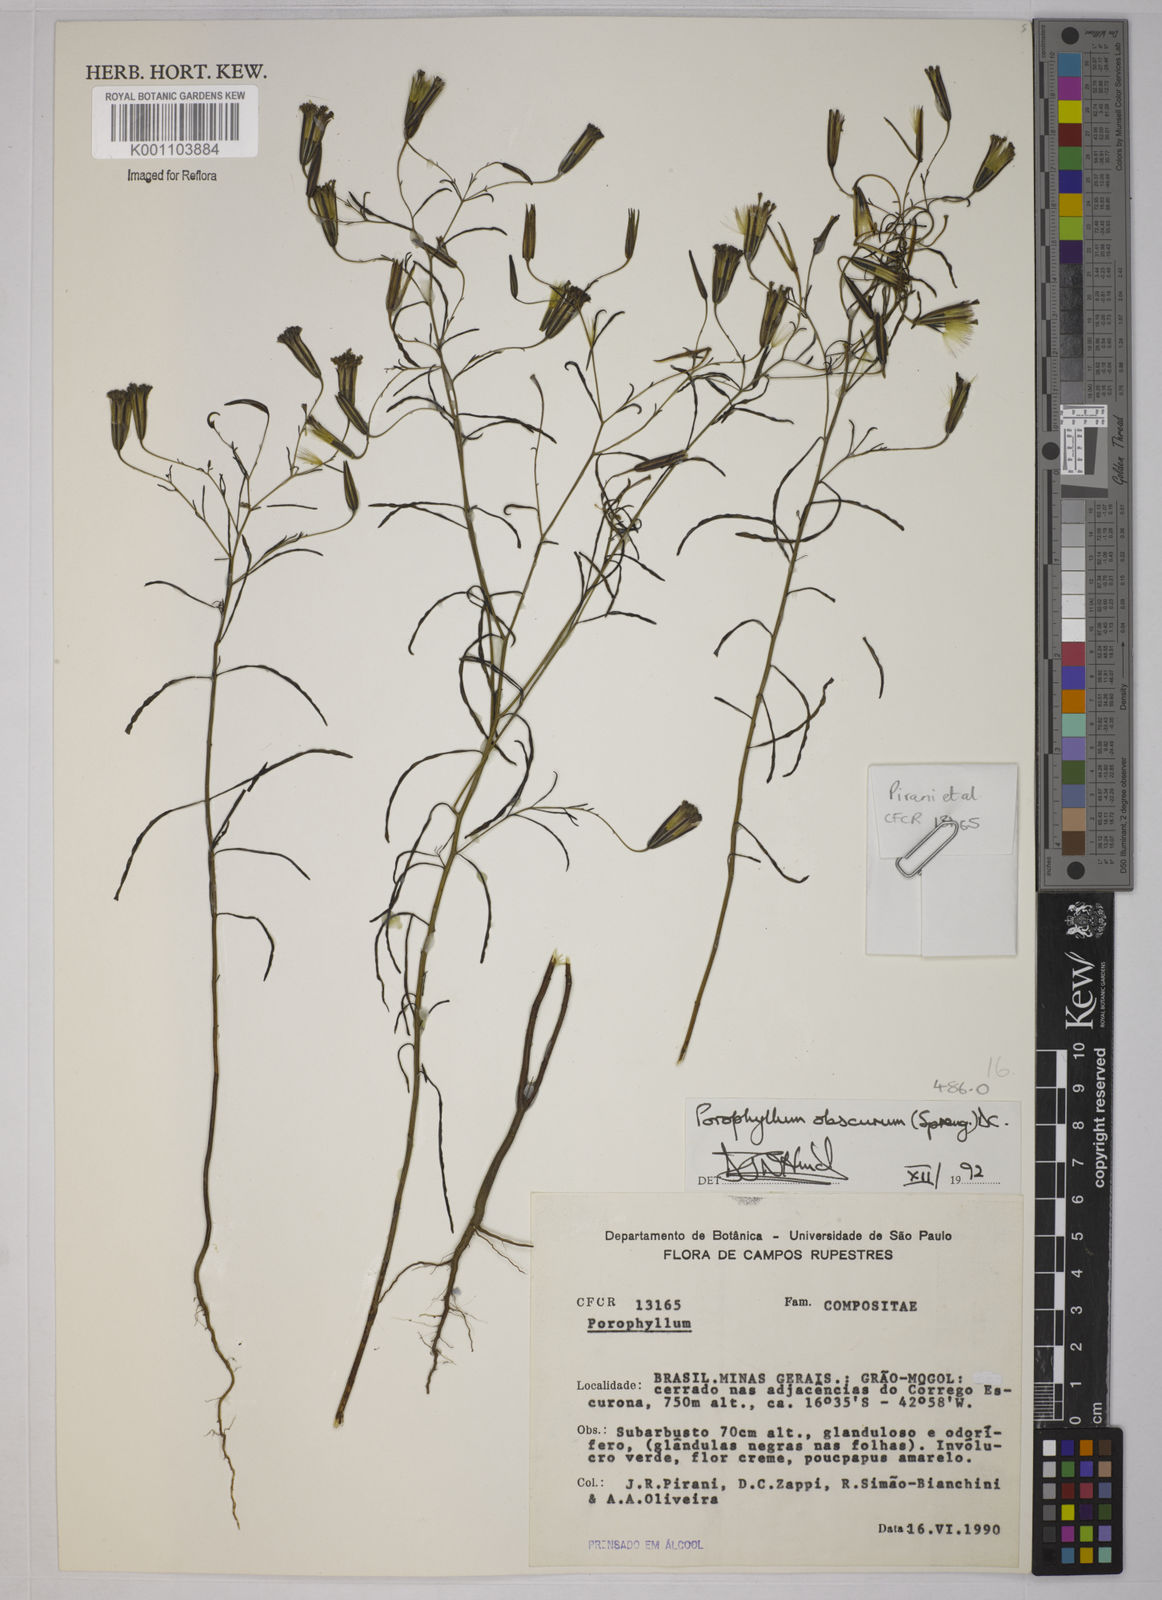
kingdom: Plantae
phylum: Tracheophyta
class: Magnoliopsida
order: Asterales
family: Asteraceae
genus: Porophyllum
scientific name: Porophyllum obscurum
